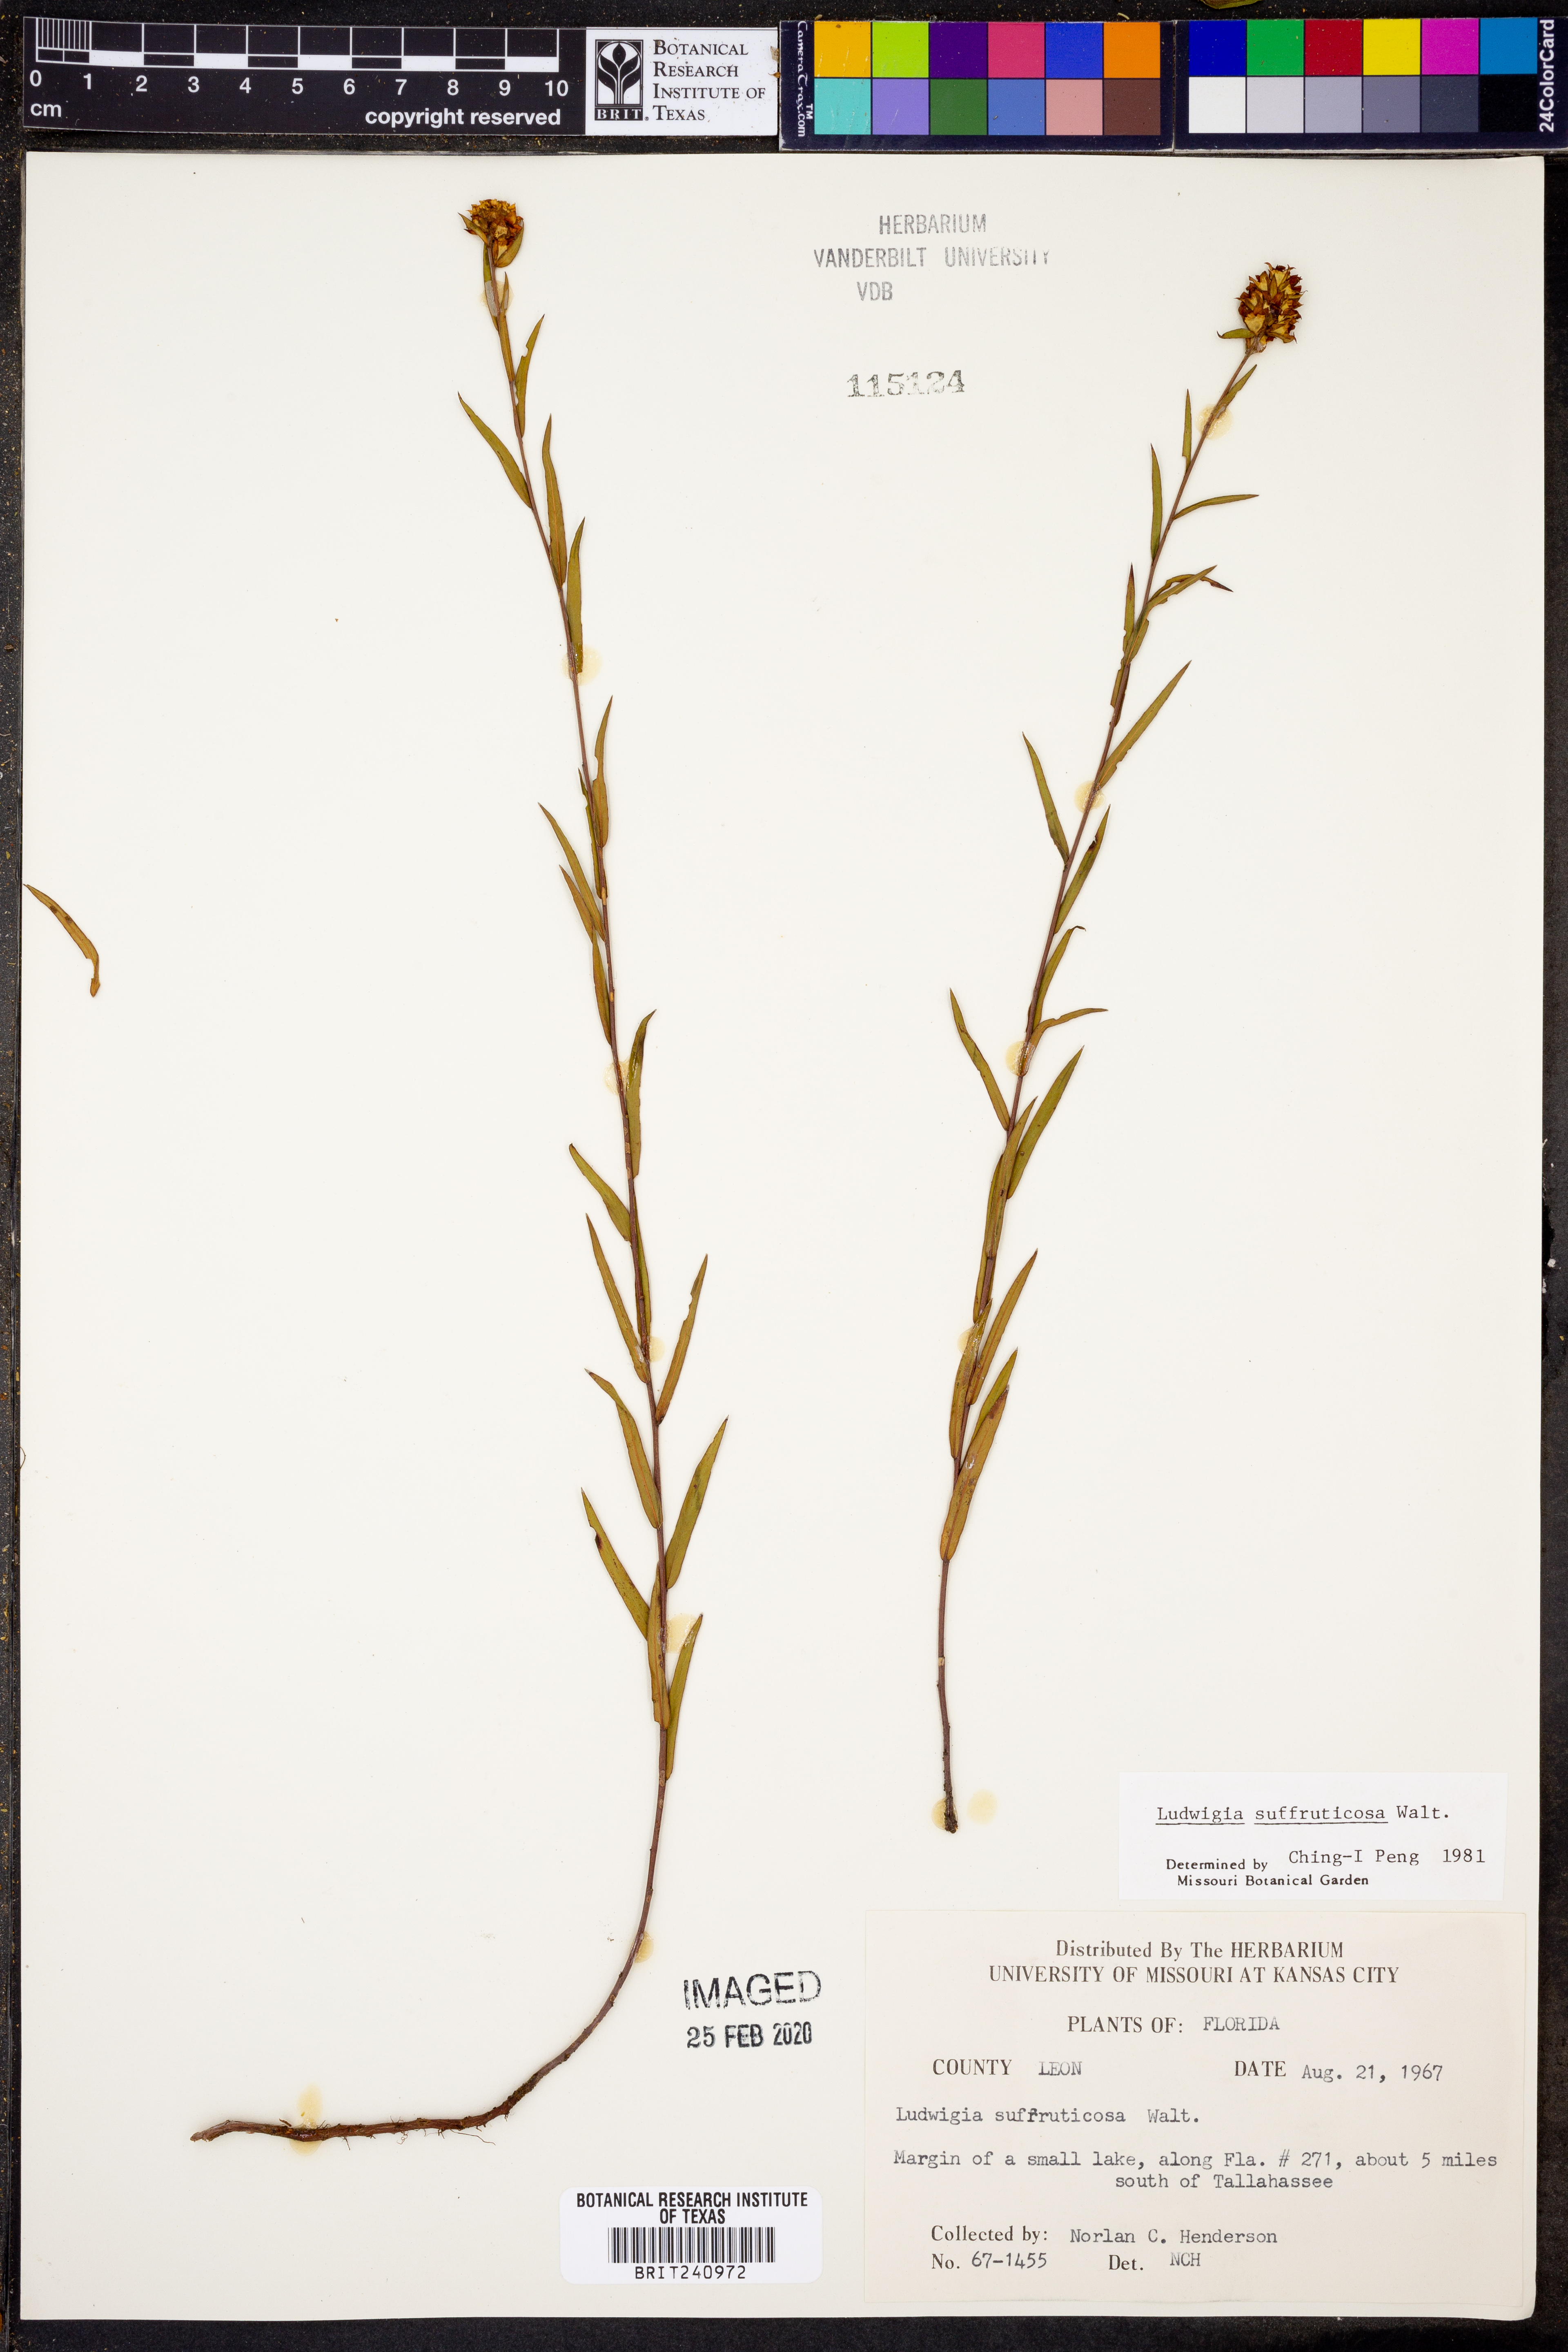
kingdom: Plantae
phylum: Tracheophyta
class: Magnoliopsida
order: Myrtales
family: Onagraceae
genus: Ludwigia
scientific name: Ludwigia suffruticosa
